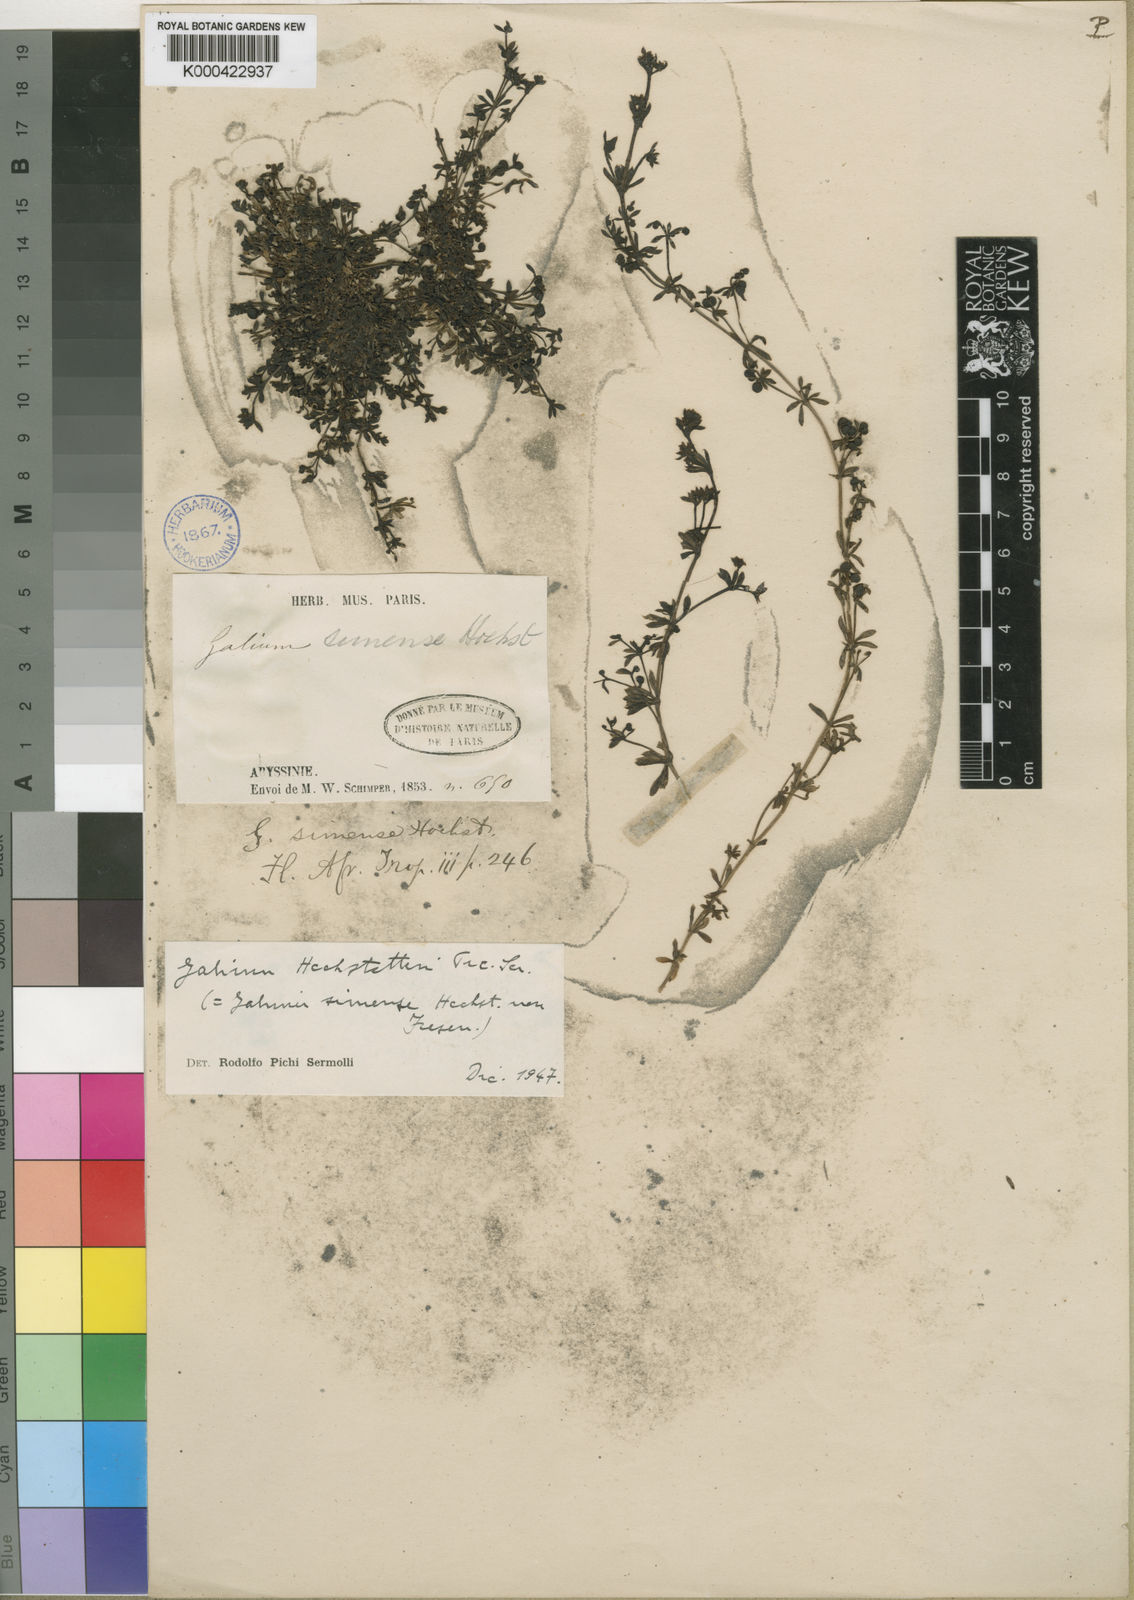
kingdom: Plantae
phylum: Tracheophyta
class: Magnoliopsida
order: Gentianales
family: Rubiaceae
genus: Galium
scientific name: Galium acrophyum
